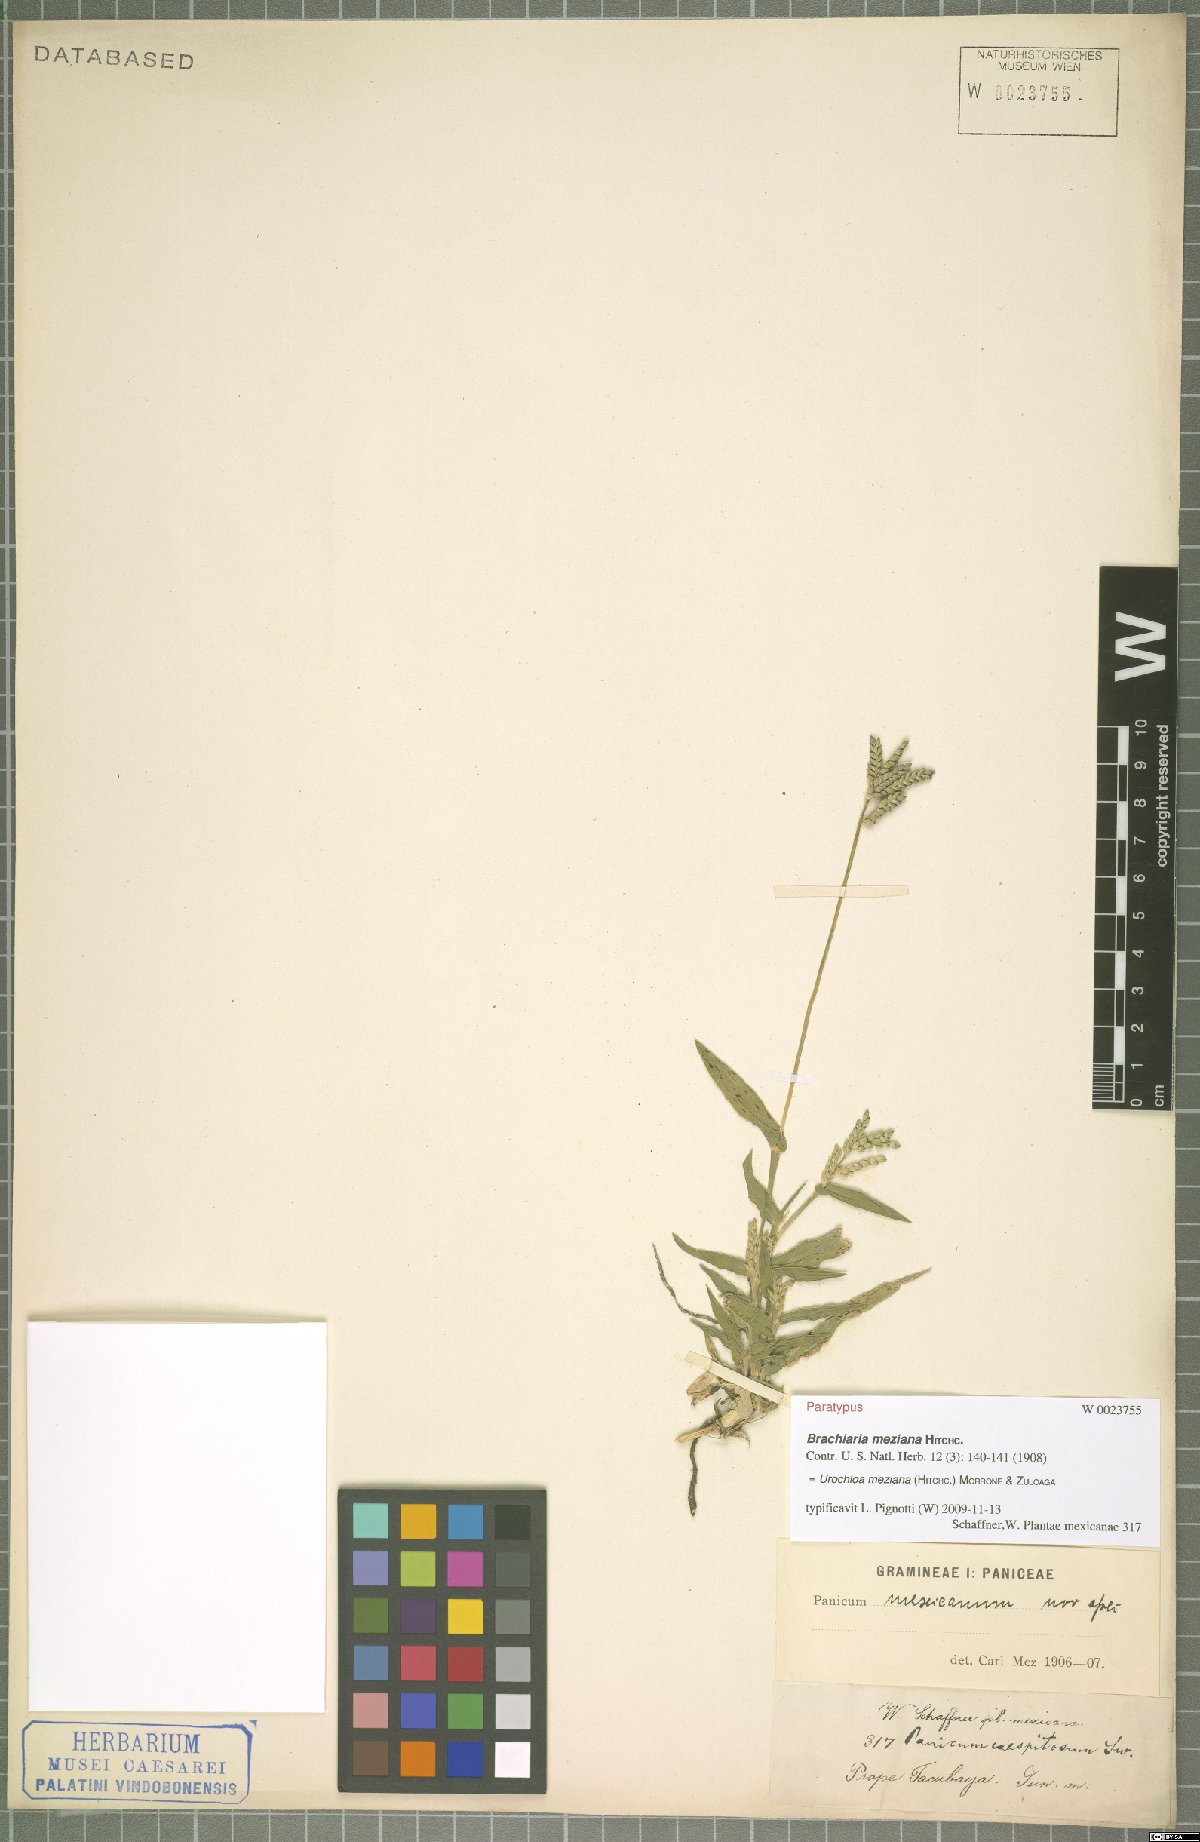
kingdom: Plantae
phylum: Tracheophyta
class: Liliopsida
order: Poales
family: Poaceae
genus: Urochloa
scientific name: Urochloa meziana
